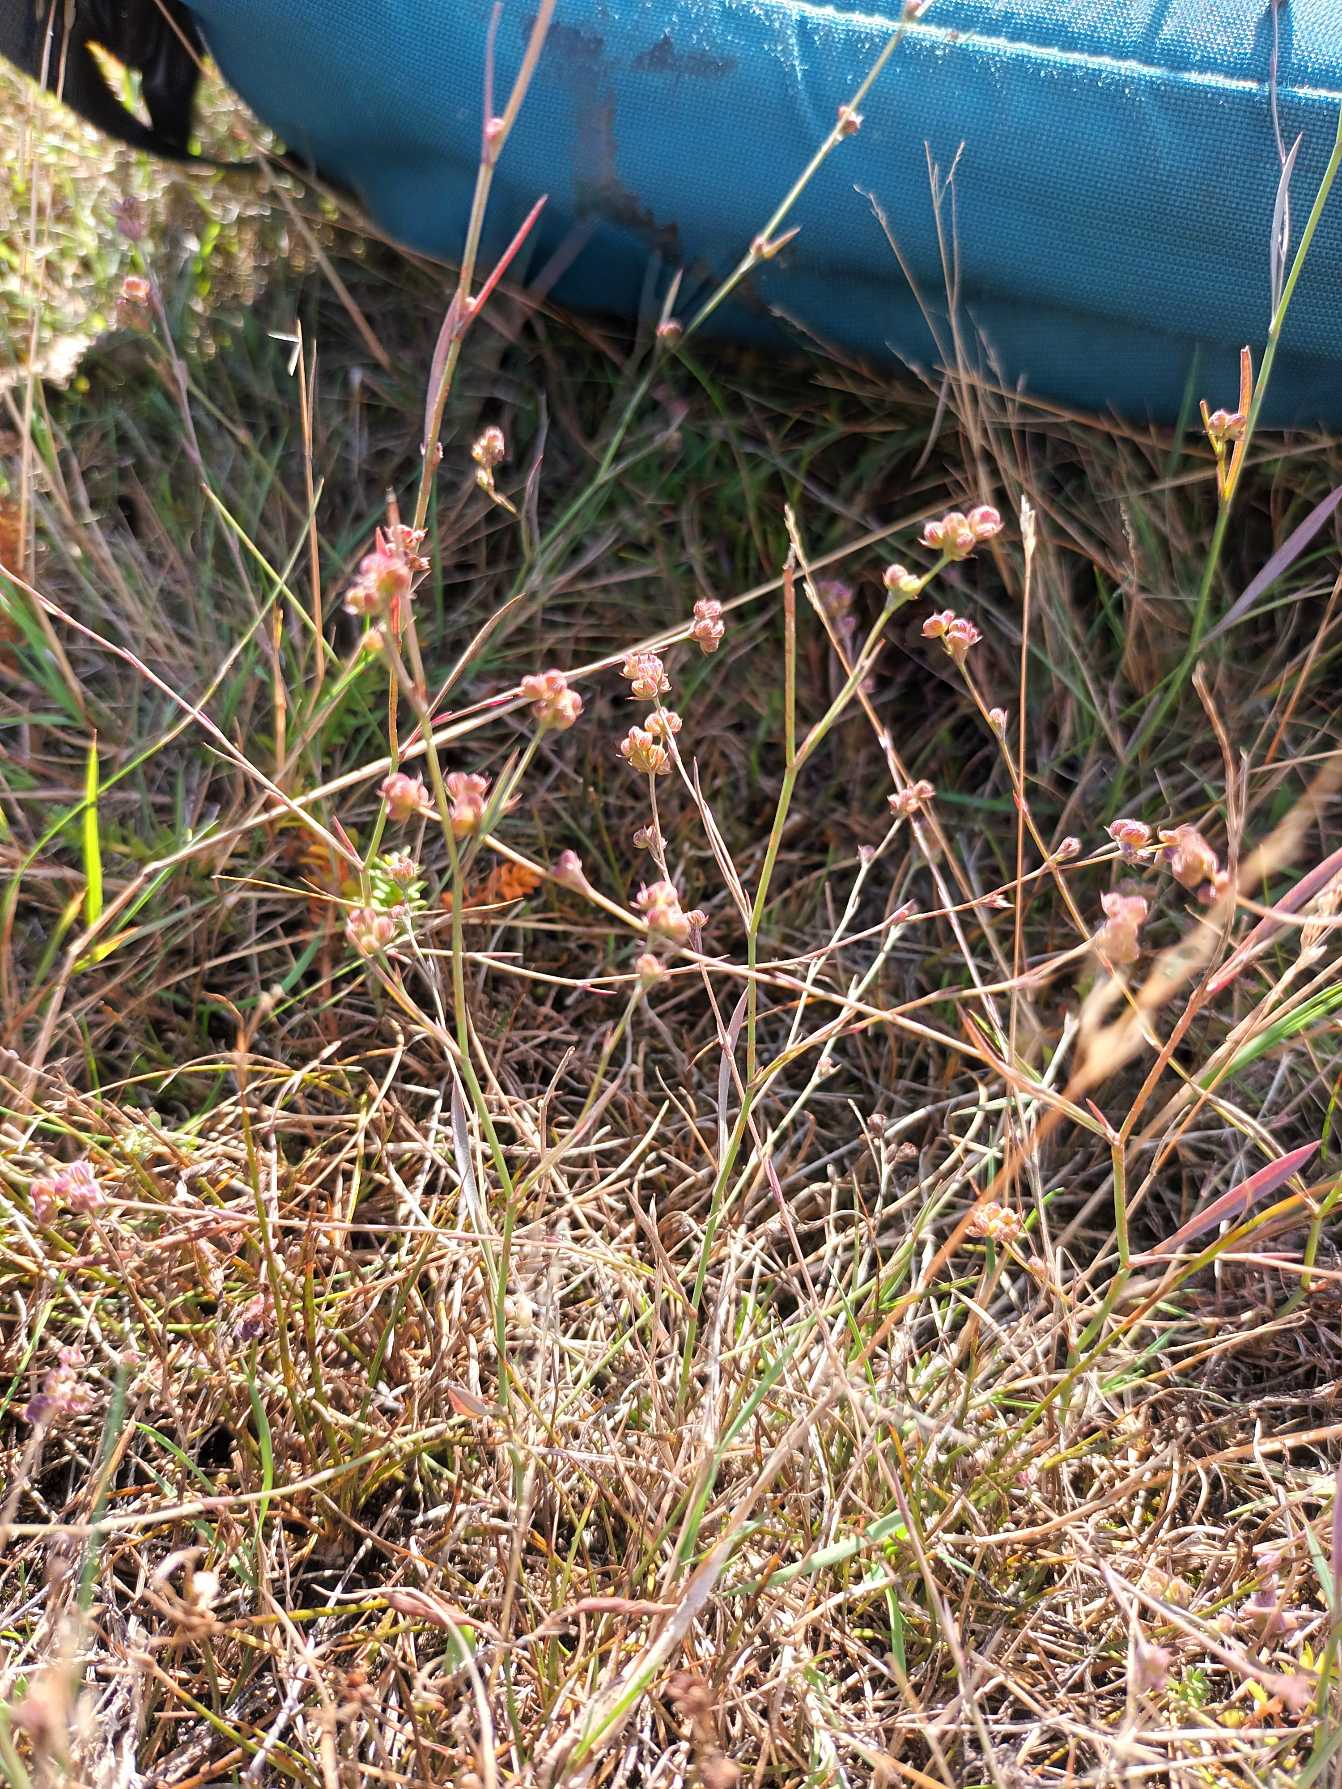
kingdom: Plantae
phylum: Tracheophyta
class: Magnoliopsida
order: Apiales
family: Apiaceae
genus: Bupleurum
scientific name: Bupleurum tenuissimum
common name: Smalbladet hareøre
